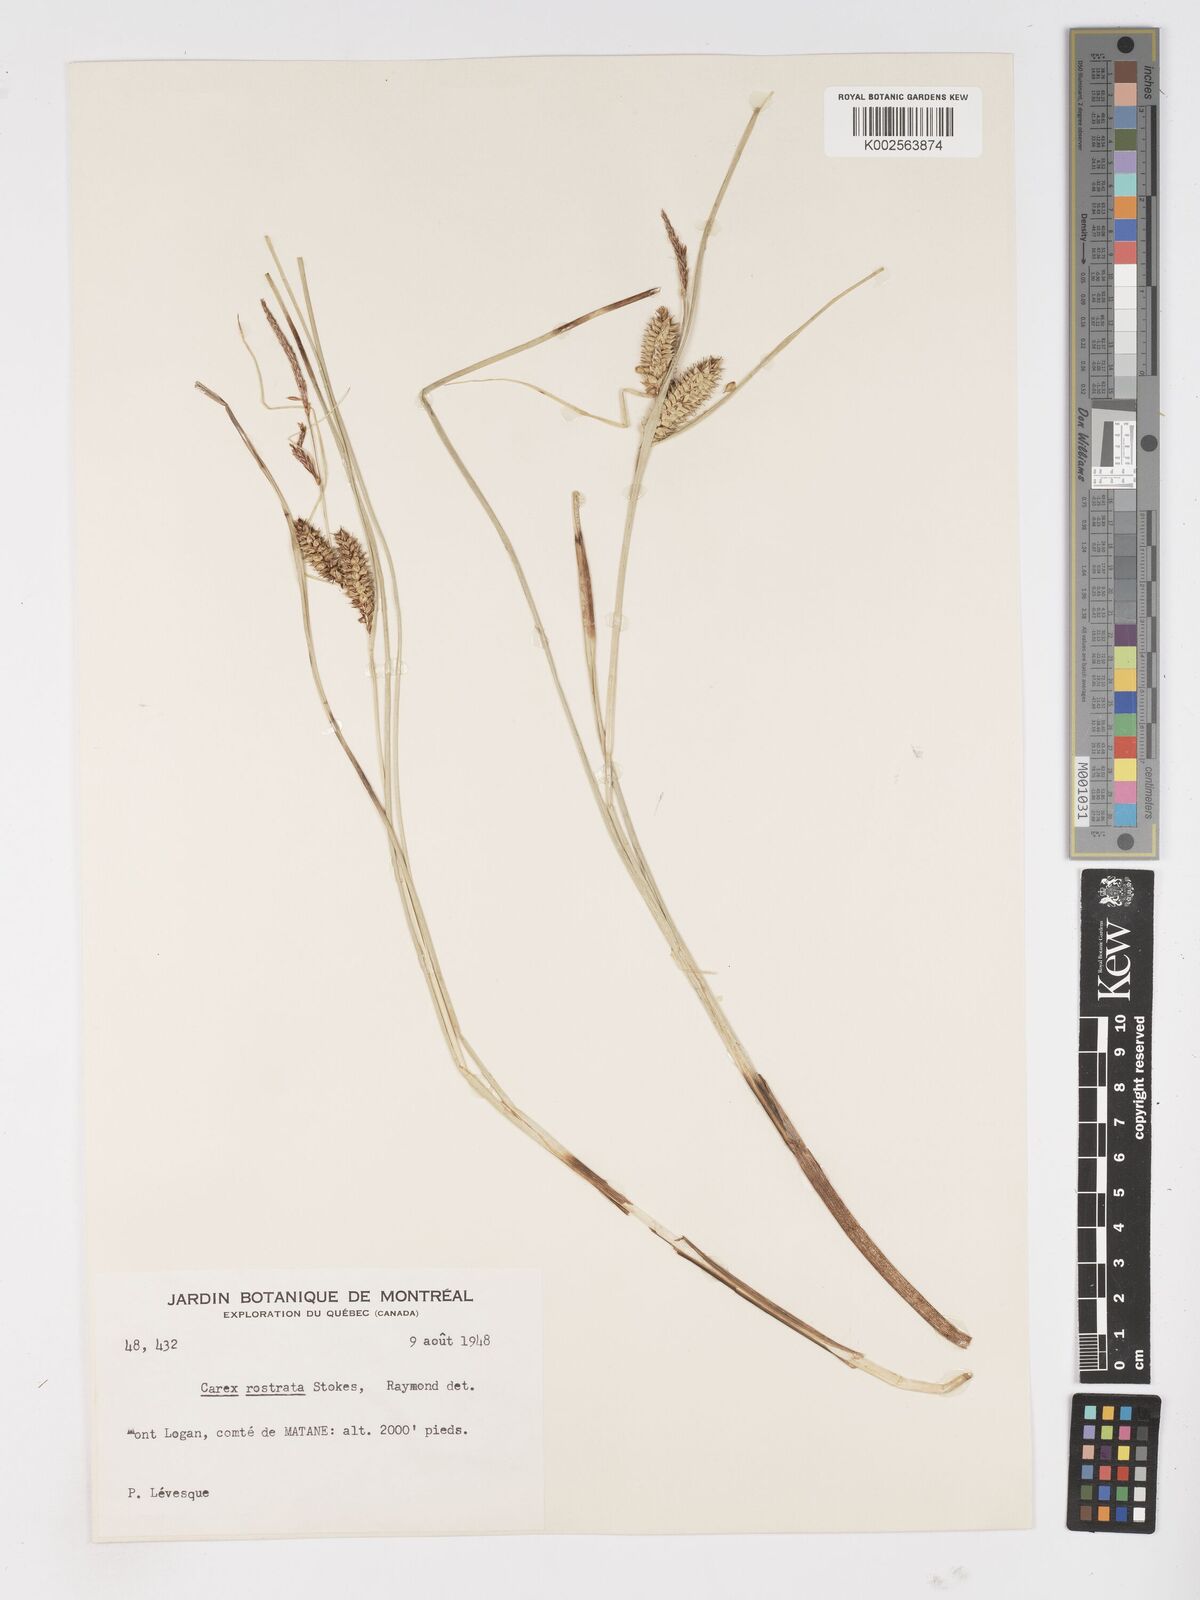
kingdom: Plantae
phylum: Tracheophyta
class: Liliopsida
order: Poales
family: Cyperaceae
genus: Carex
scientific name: Carex rostrata
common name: Bottle sedge
